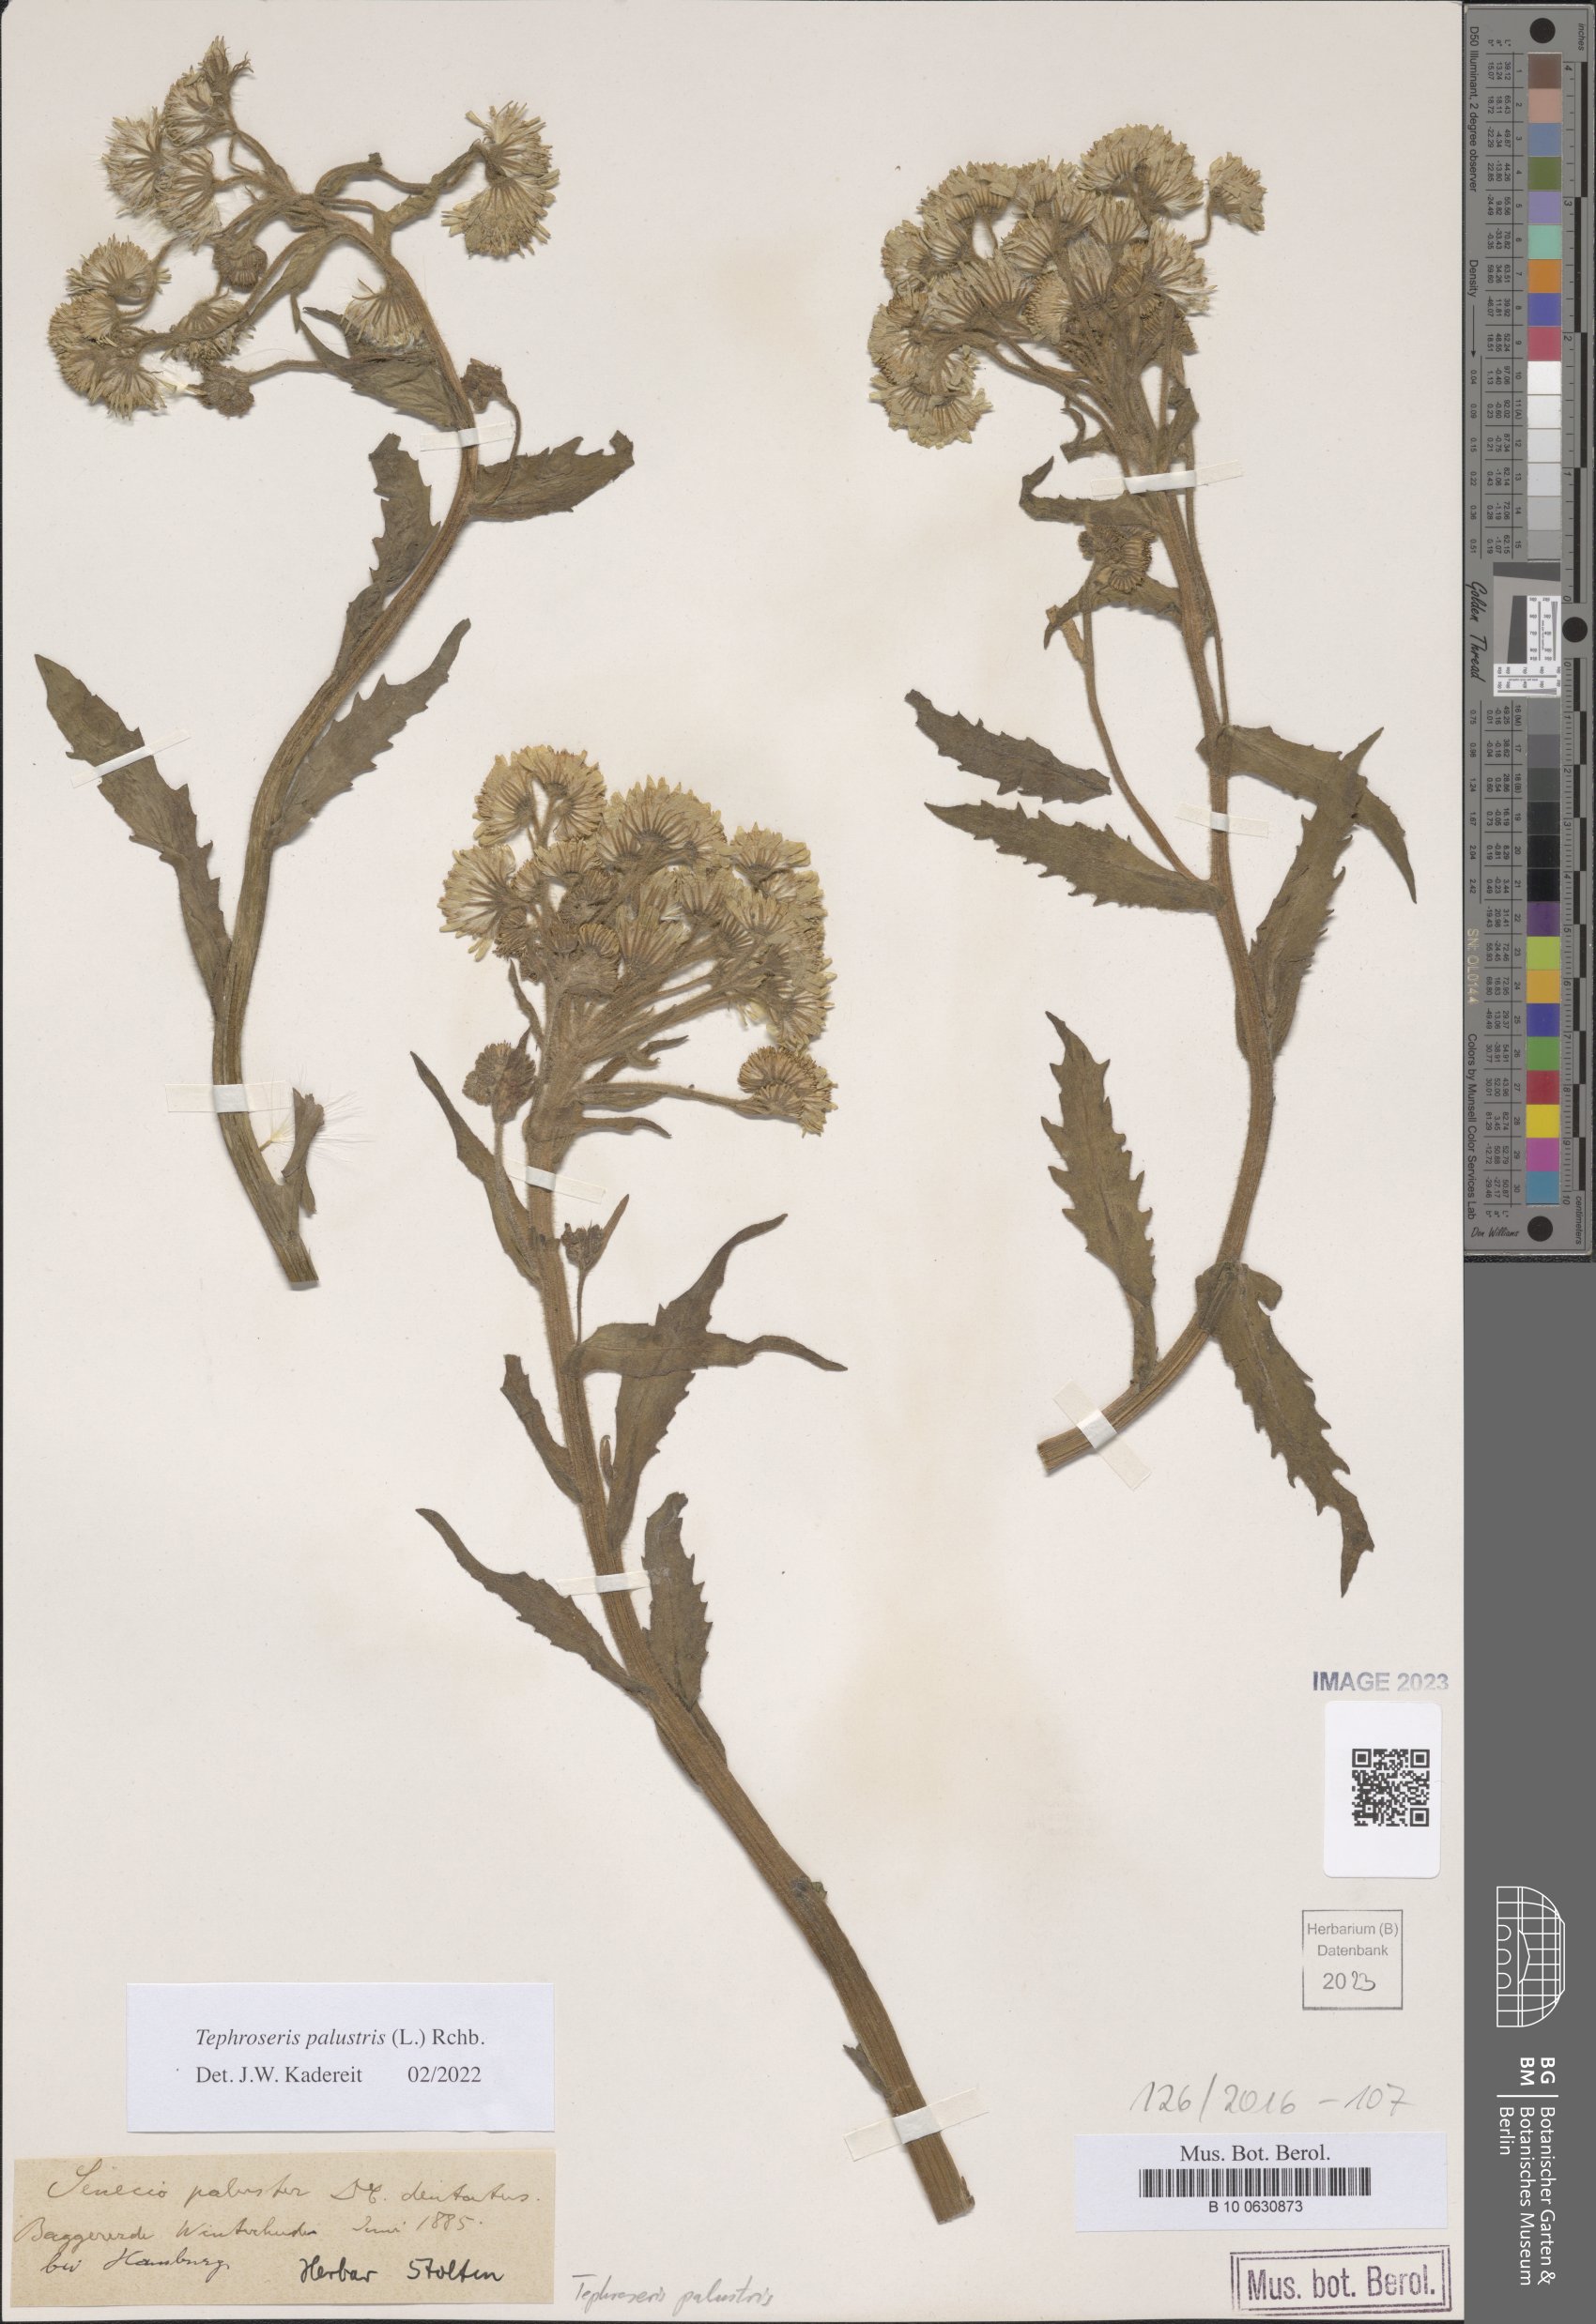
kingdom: Plantae
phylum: Tracheophyta
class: Magnoliopsida
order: Asterales
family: Asteraceae
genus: Tephroseris
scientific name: Tephroseris palustris
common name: Marsh fleawort
